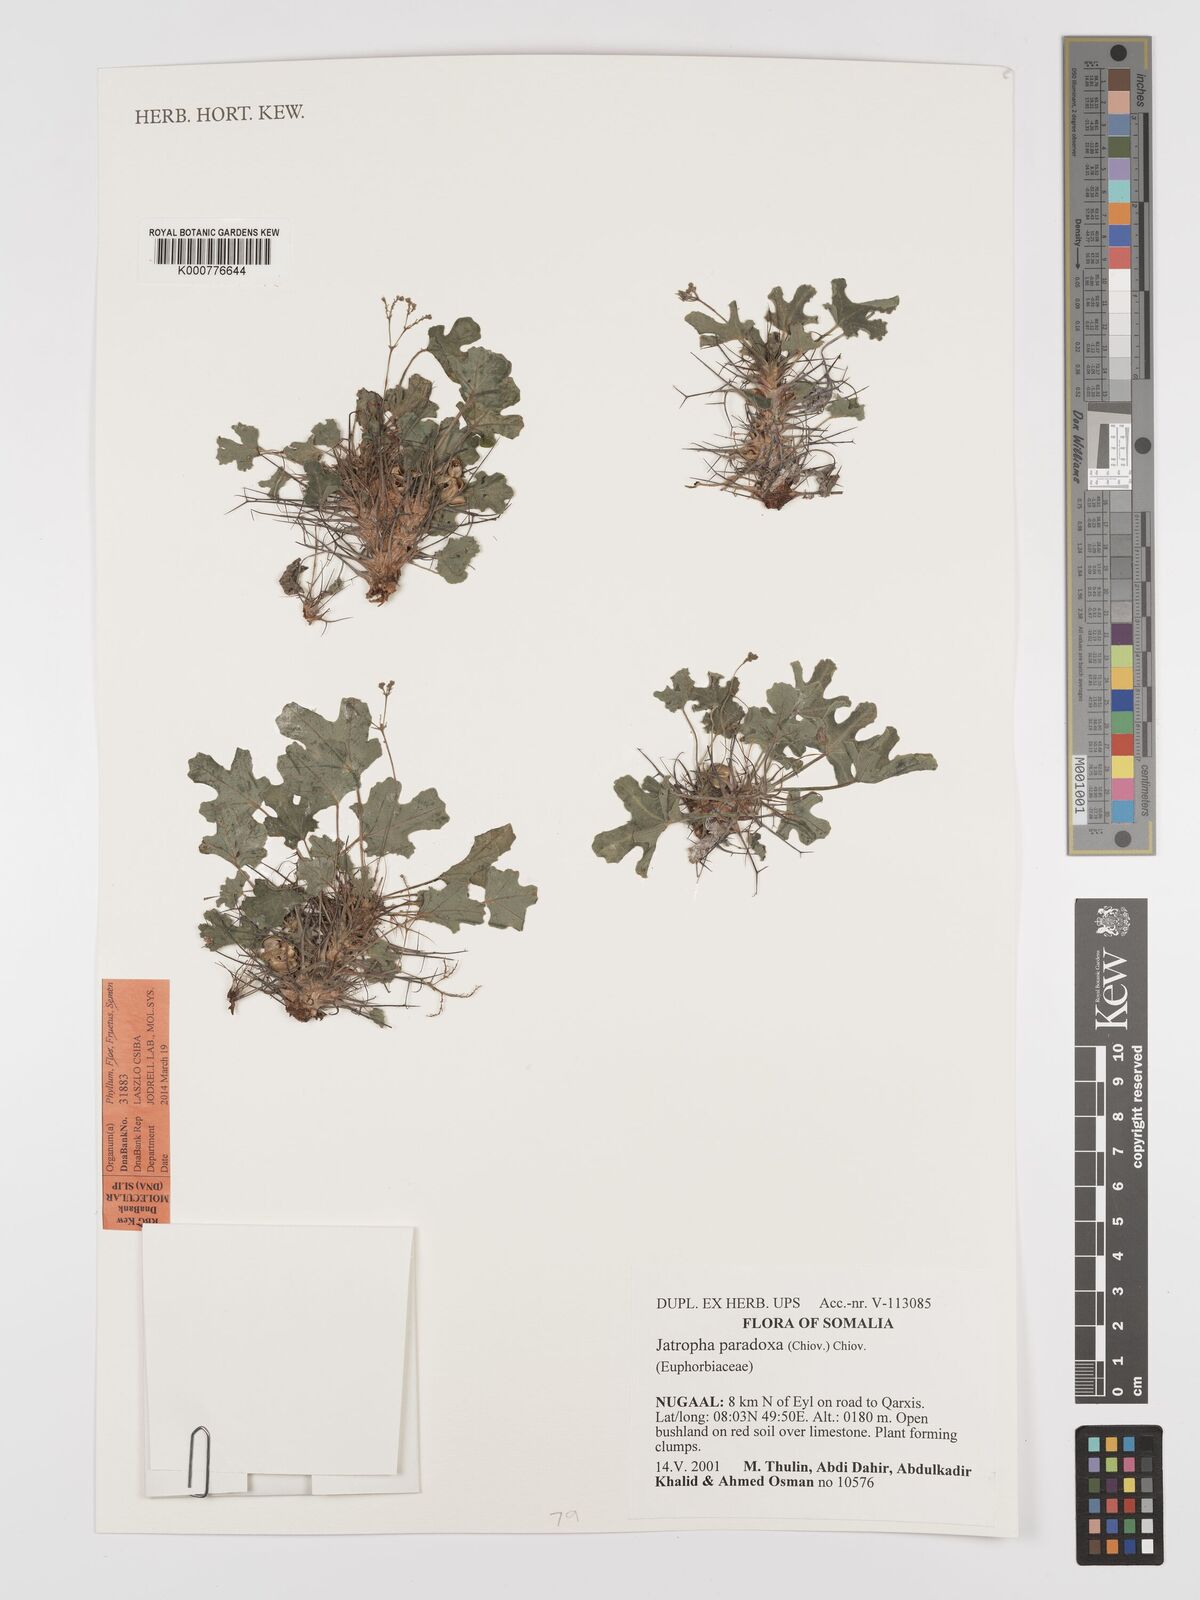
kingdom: Plantae
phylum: Tracheophyta
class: Magnoliopsida
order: Malpighiales
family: Euphorbiaceae
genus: Jatropha
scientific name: Jatropha paradoxa
